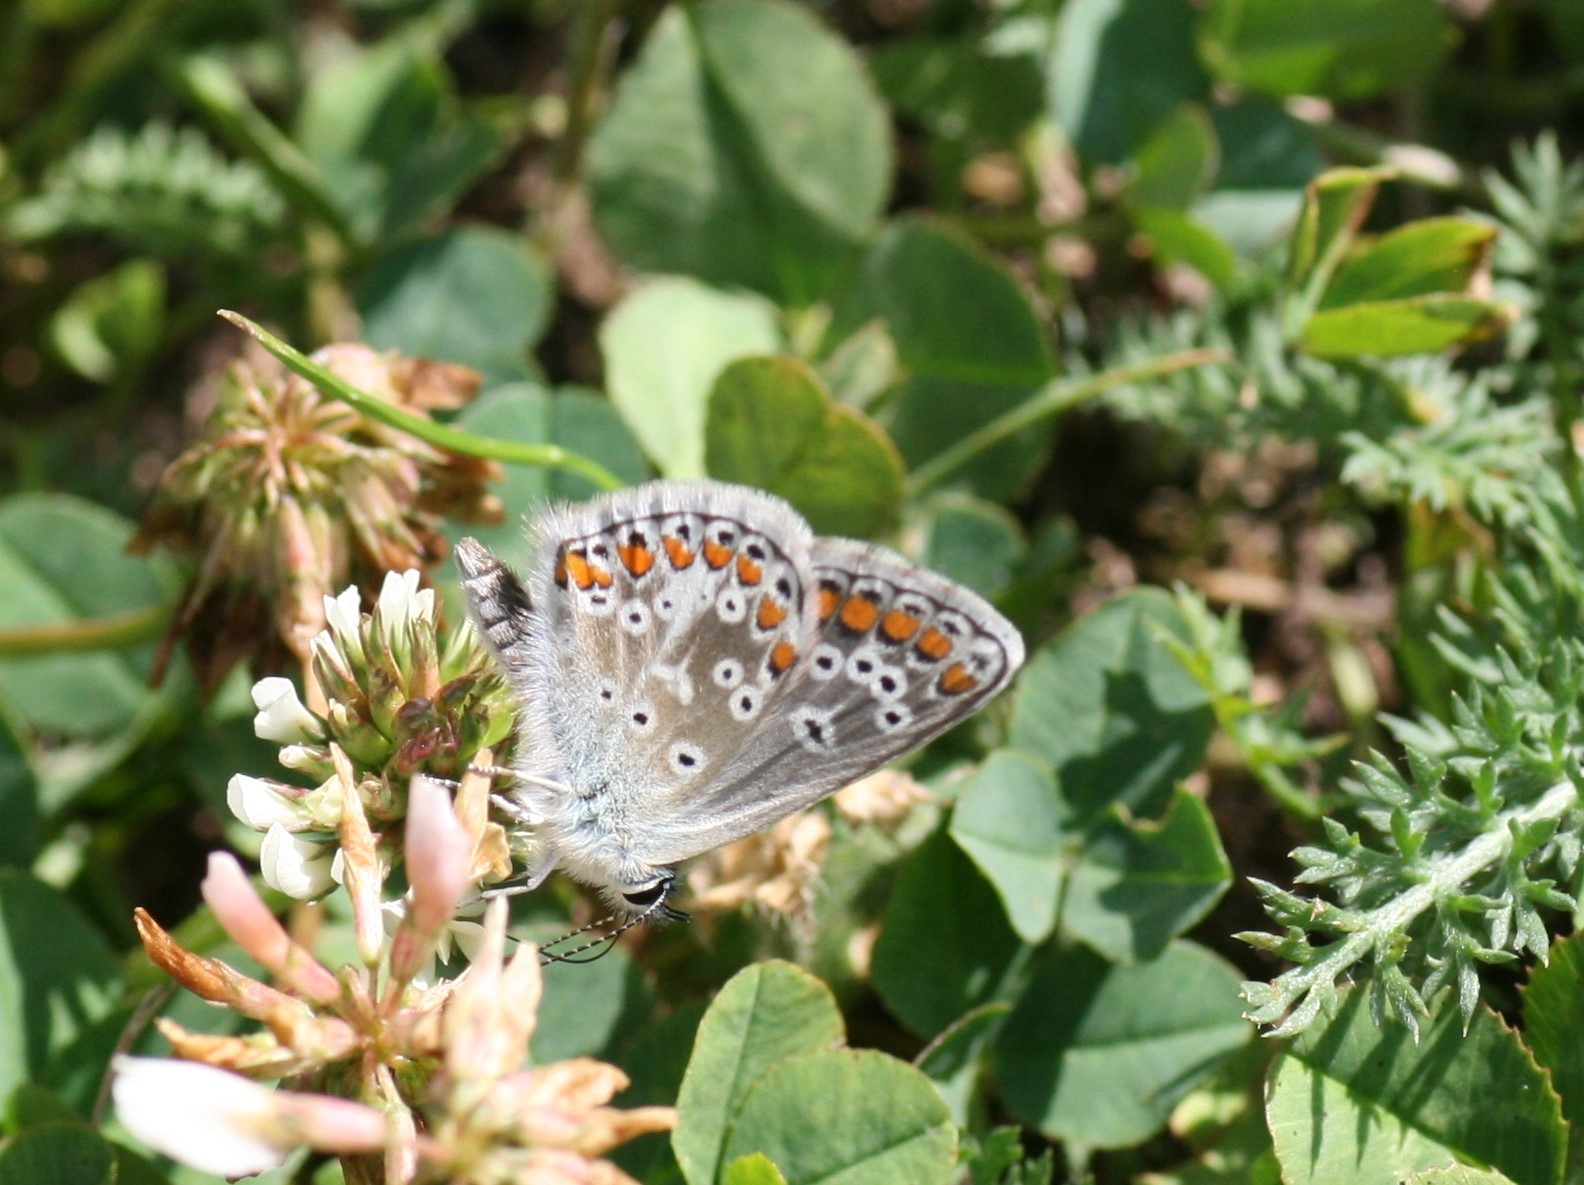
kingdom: Animalia
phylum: Arthropoda
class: Insecta
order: Lepidoptera
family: Lycaenidae
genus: Aricia
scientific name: Aricia agestis
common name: Rødplettet blåfugl
